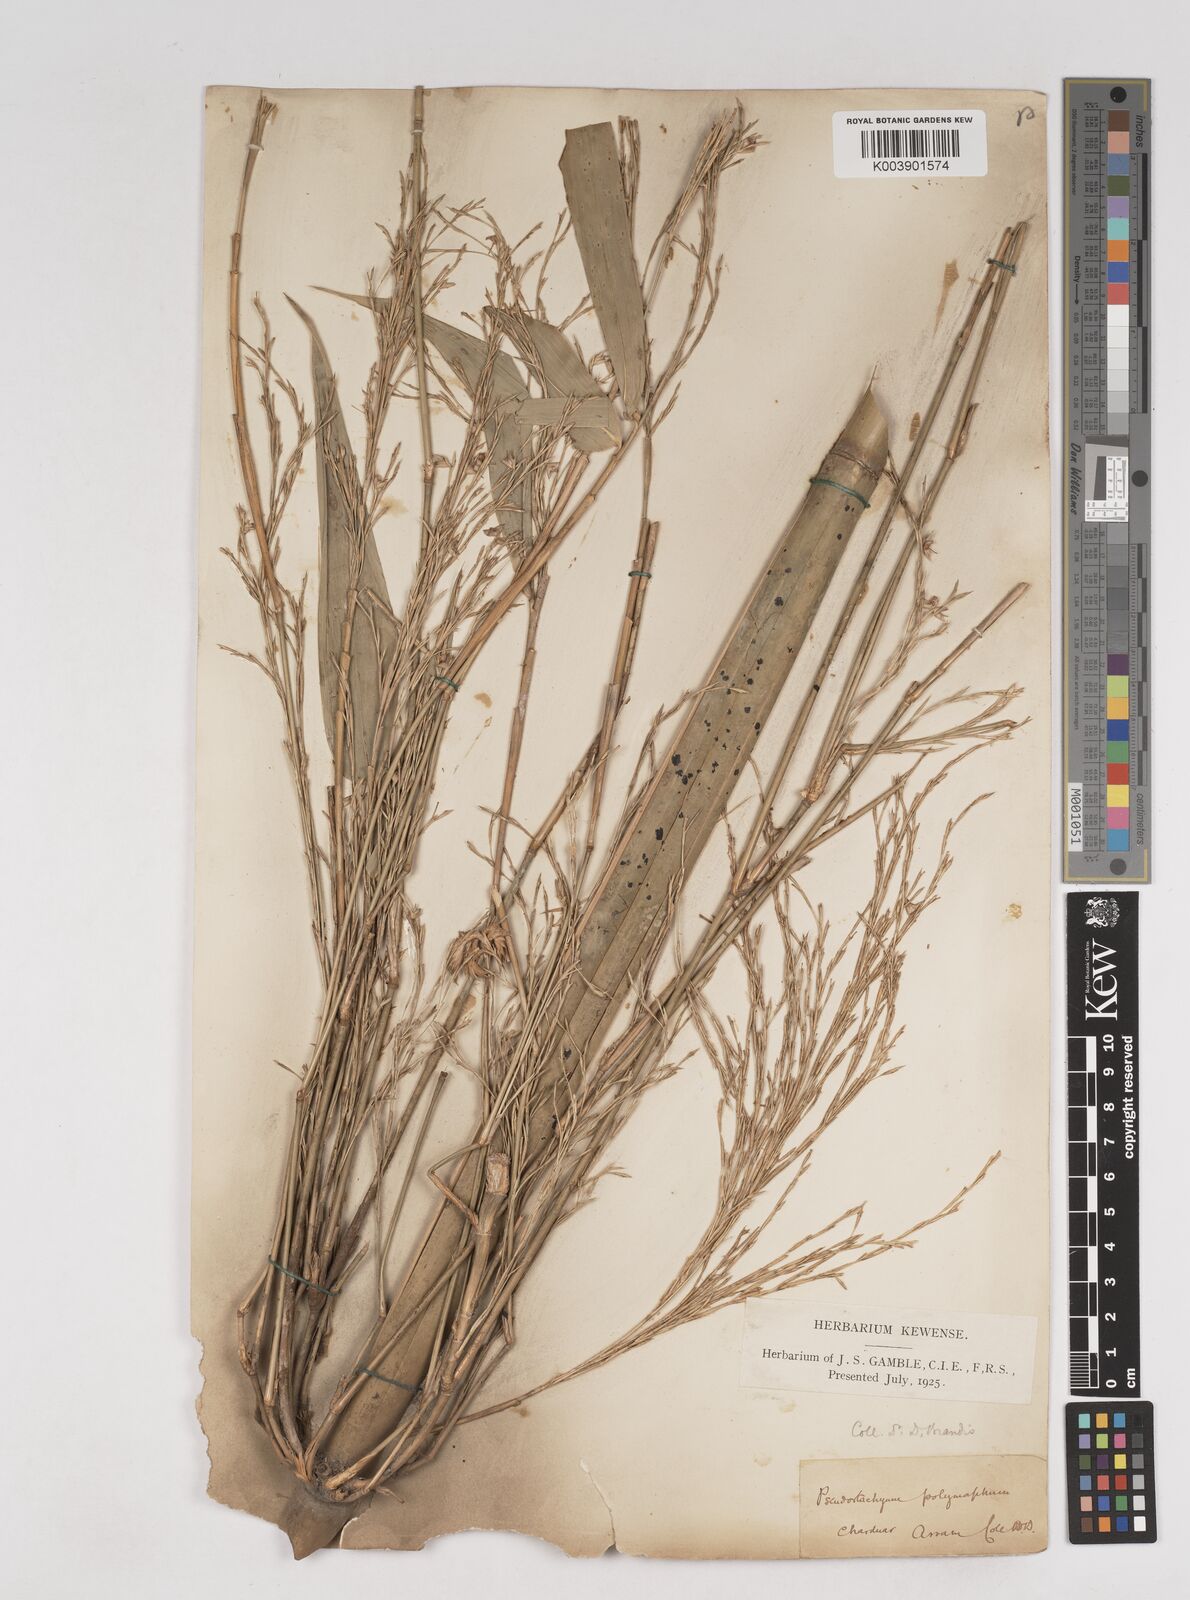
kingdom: Plantae
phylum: Tracheophyta
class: Liliopsida
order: Poales
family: Poaceae
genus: Pseudostachyum
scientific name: Pseudostachyum polymorphum
